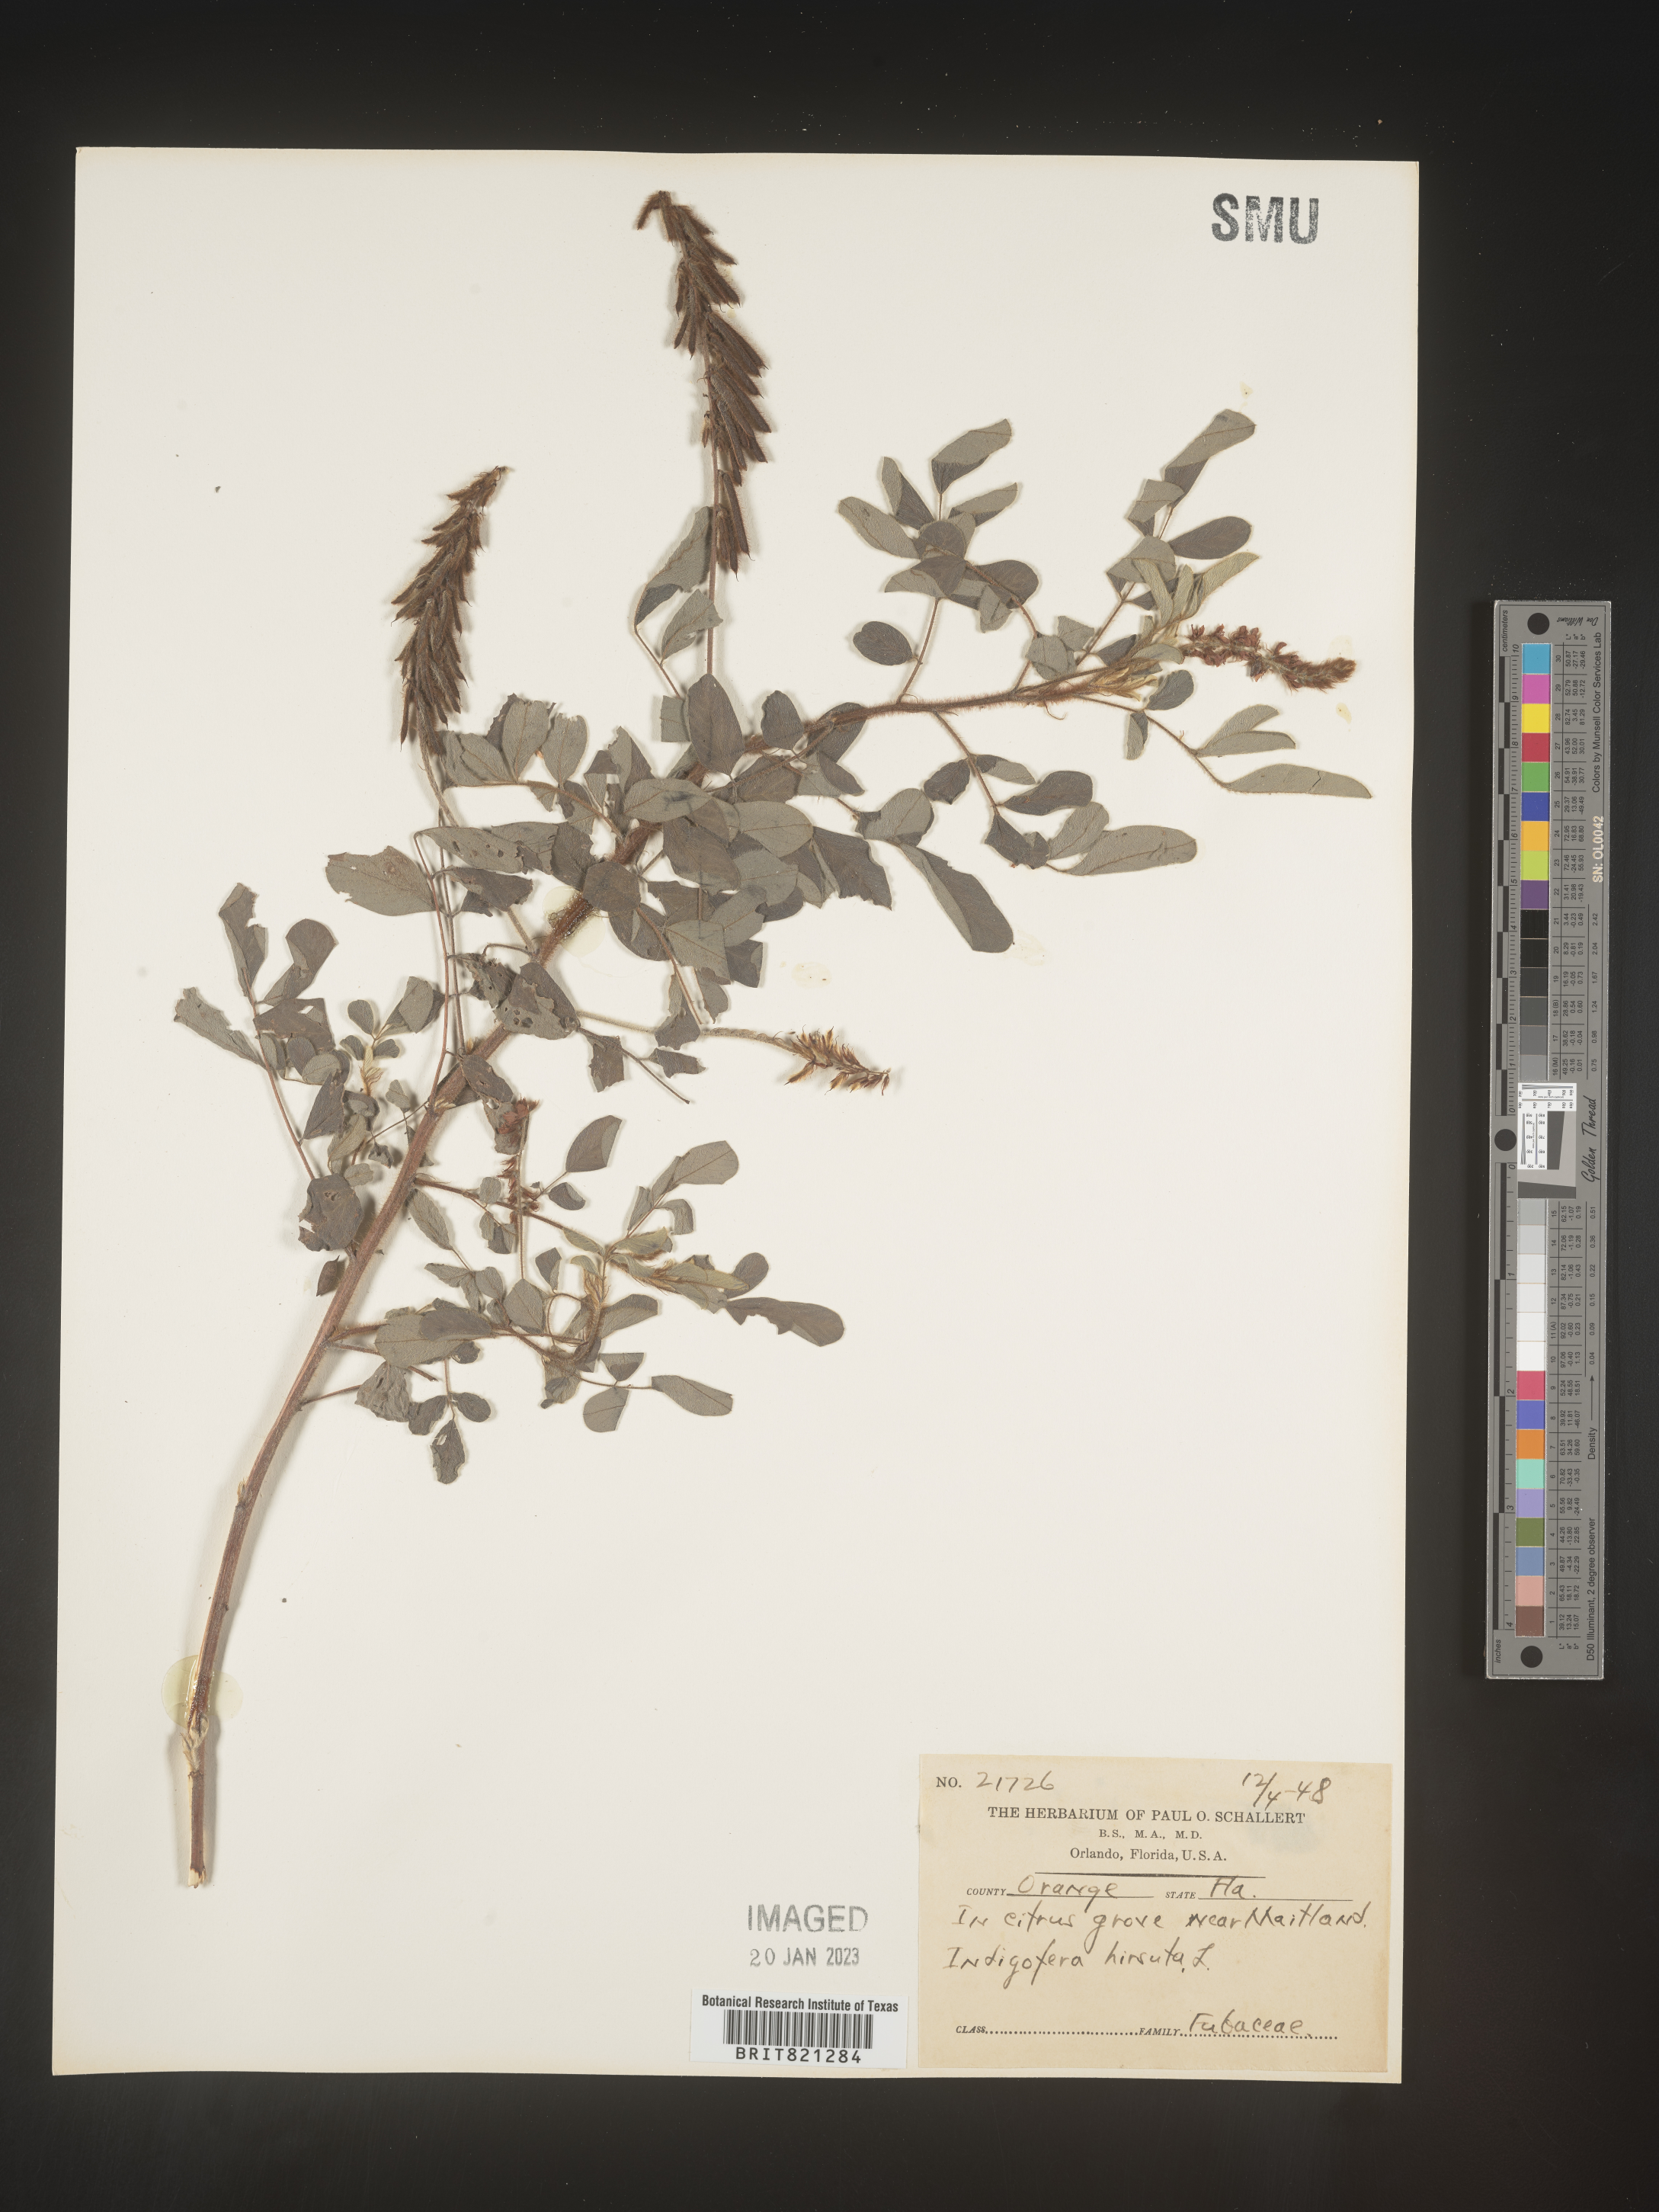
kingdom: Plantae
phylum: Tracheophyta
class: Magnoliopsida
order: Fabales
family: Fabaceae
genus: Indigofera
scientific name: Indigofera
